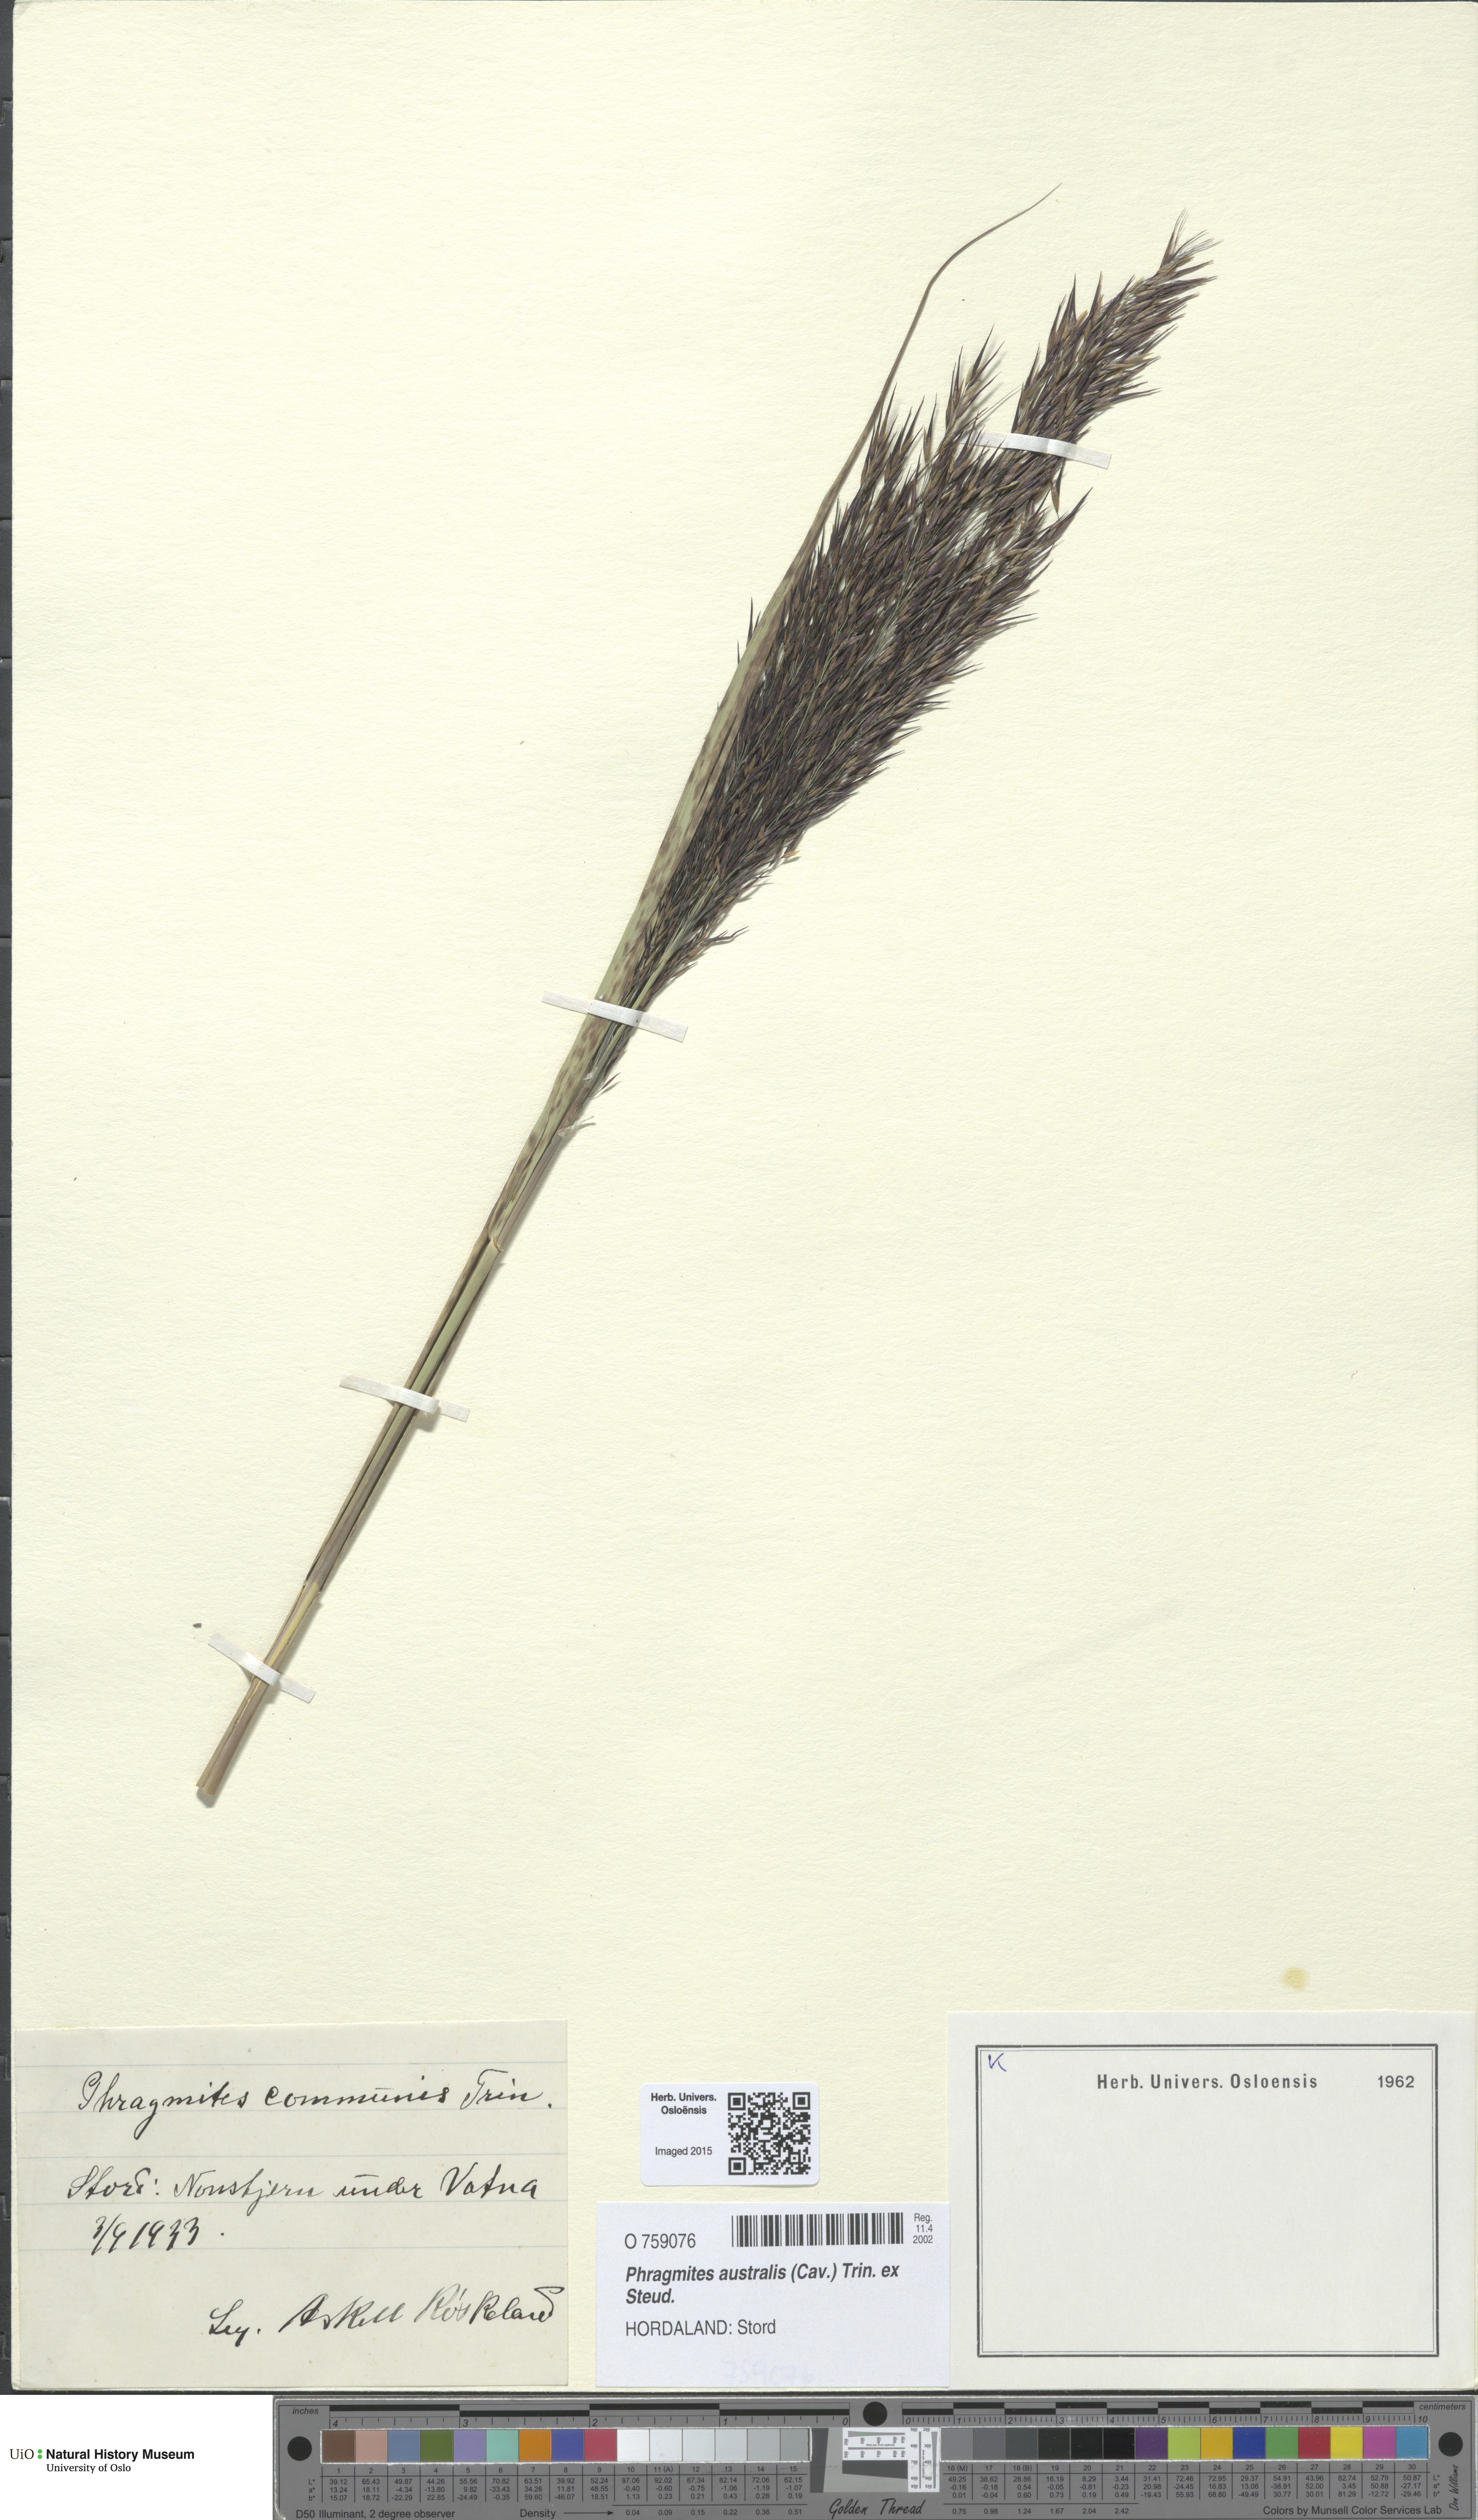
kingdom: Plantae
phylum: Tracheophyta
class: Liliopsida
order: Poales
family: Poaceae
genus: Phragmites
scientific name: Phragmites australis
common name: Common reed
